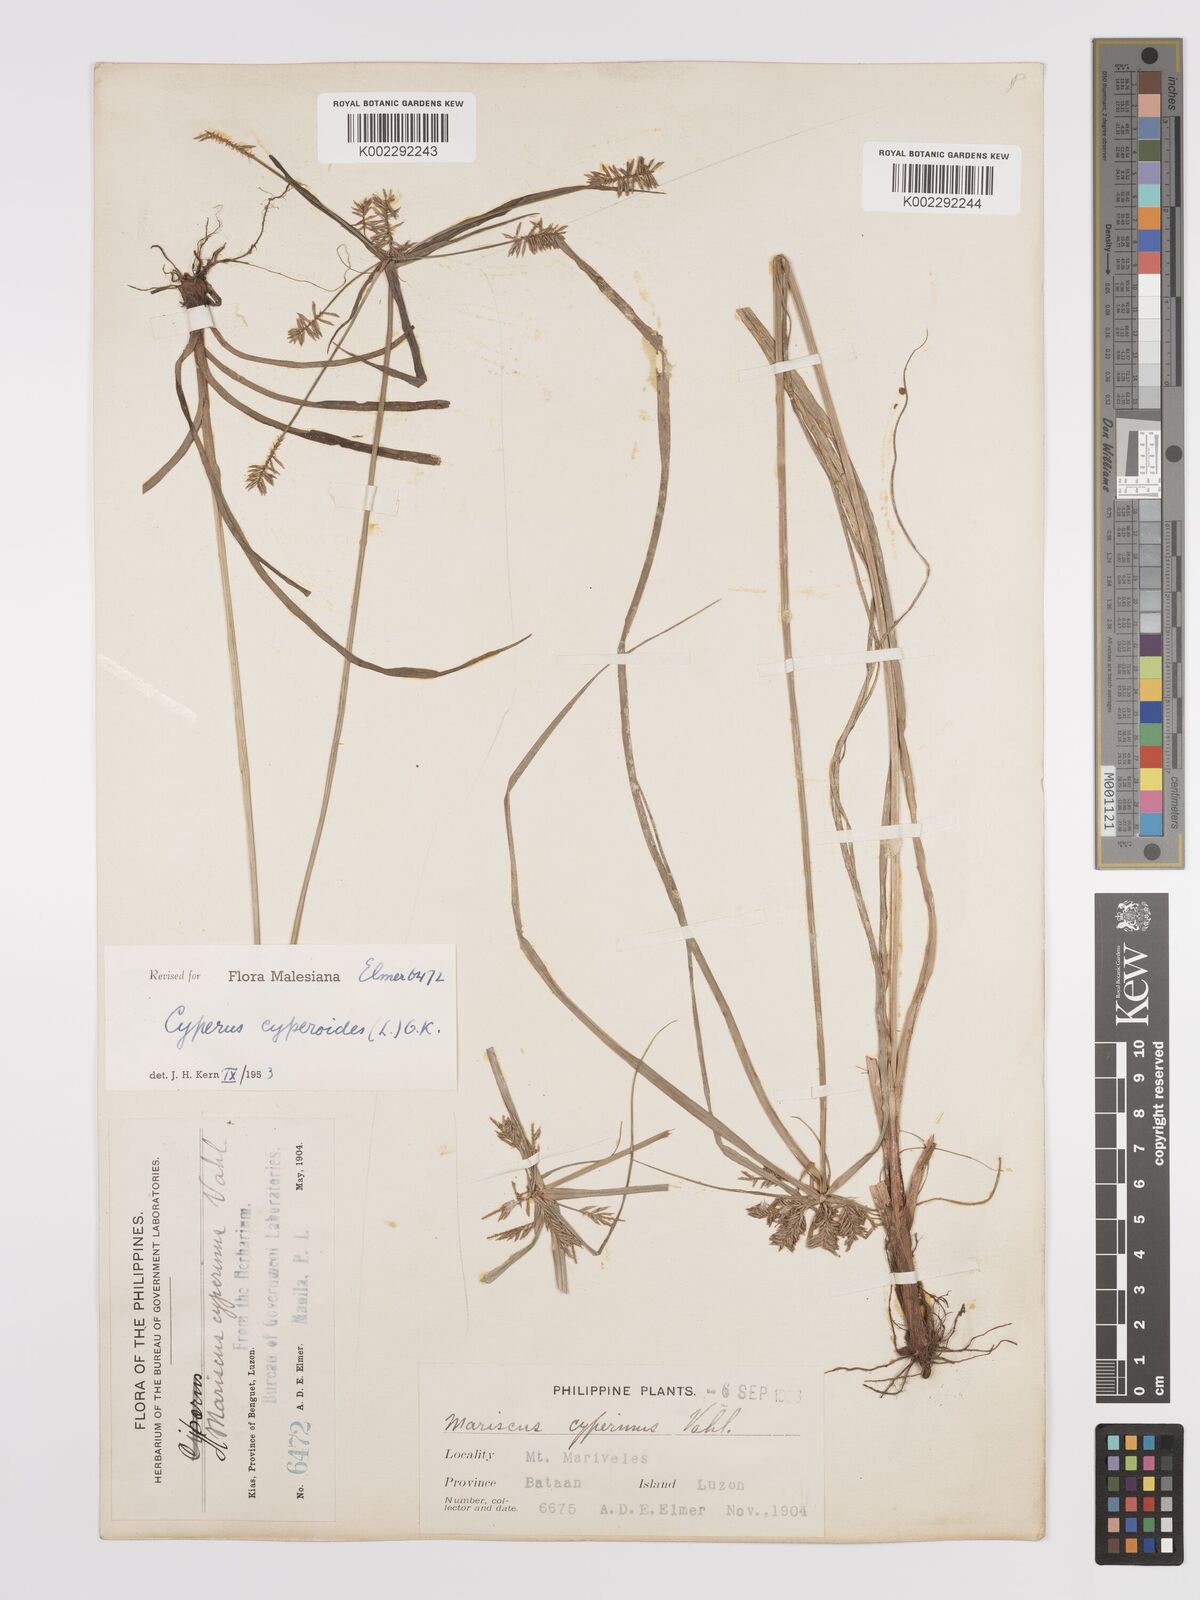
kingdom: Plantae
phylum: Tracheophyta
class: Liliopsida
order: Poales
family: Cyperaceae
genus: Cyperus
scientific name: Cyperus cyperoides
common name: Pacific island flat sedge
